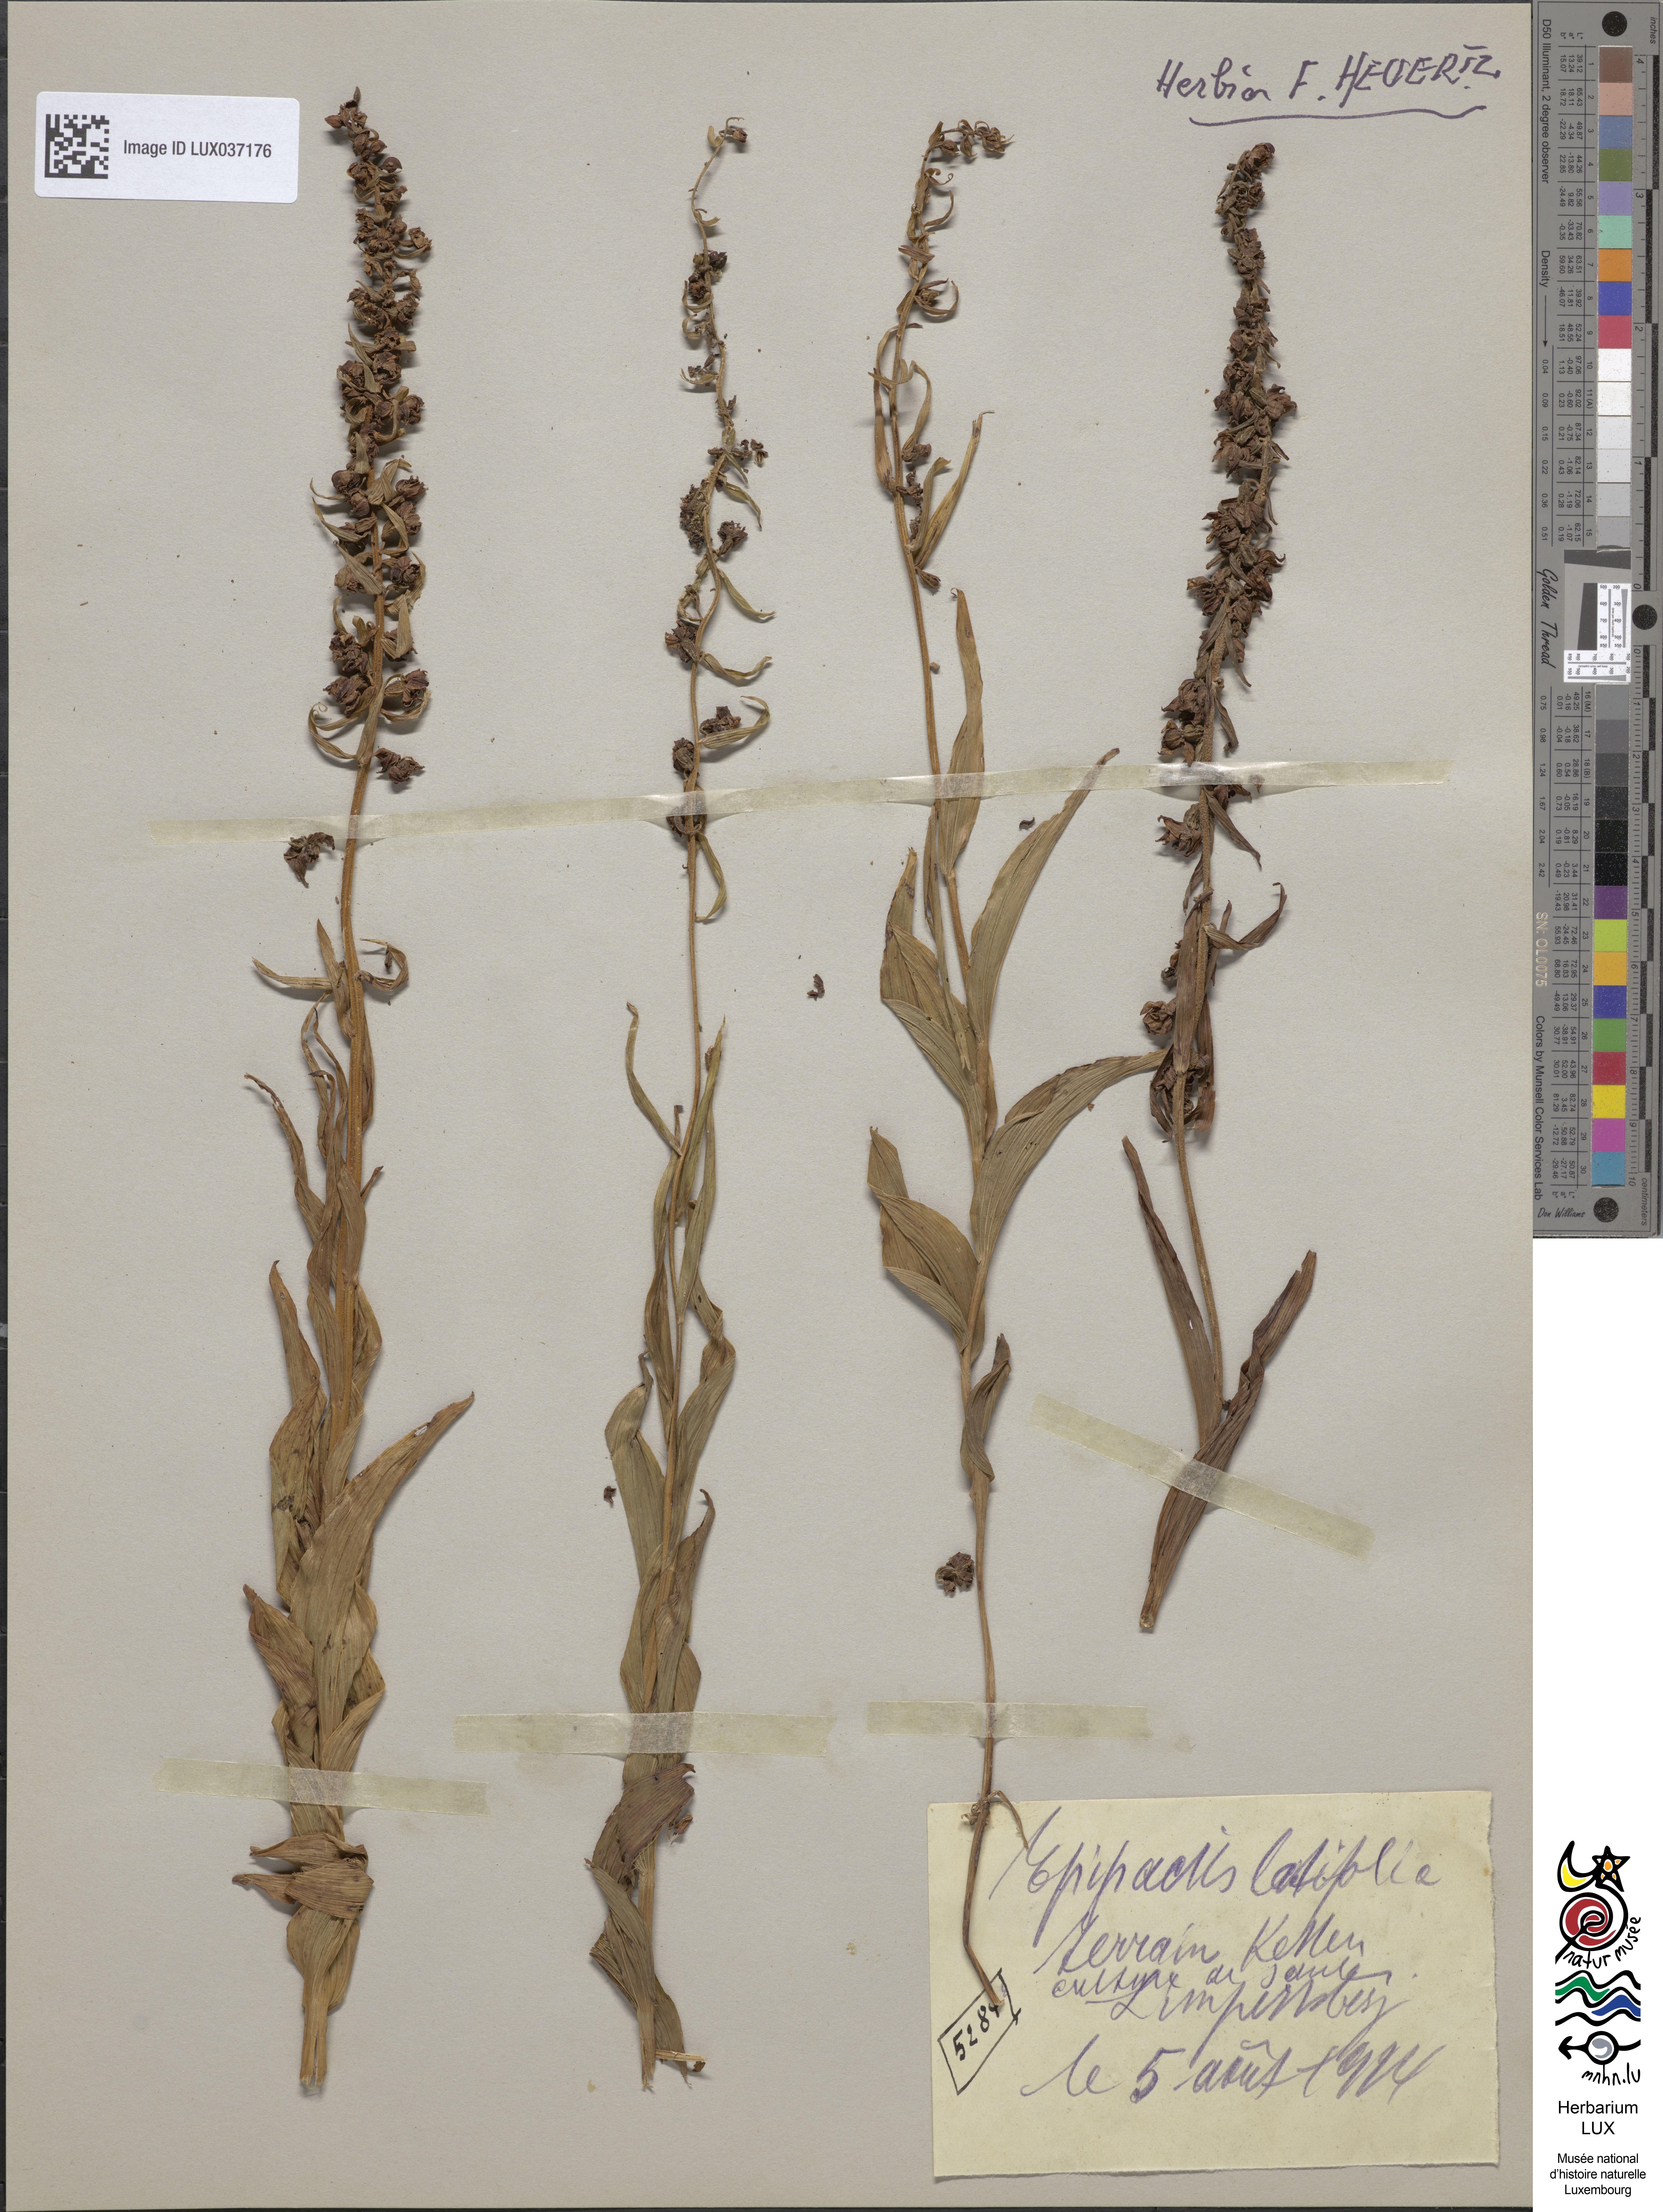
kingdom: Plantae
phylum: Tracheophyta
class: Liliopsida
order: Asparagales
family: Orchidaceae
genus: Epipactis
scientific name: Epipactis helleborine
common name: Broad-leaved helleborine
